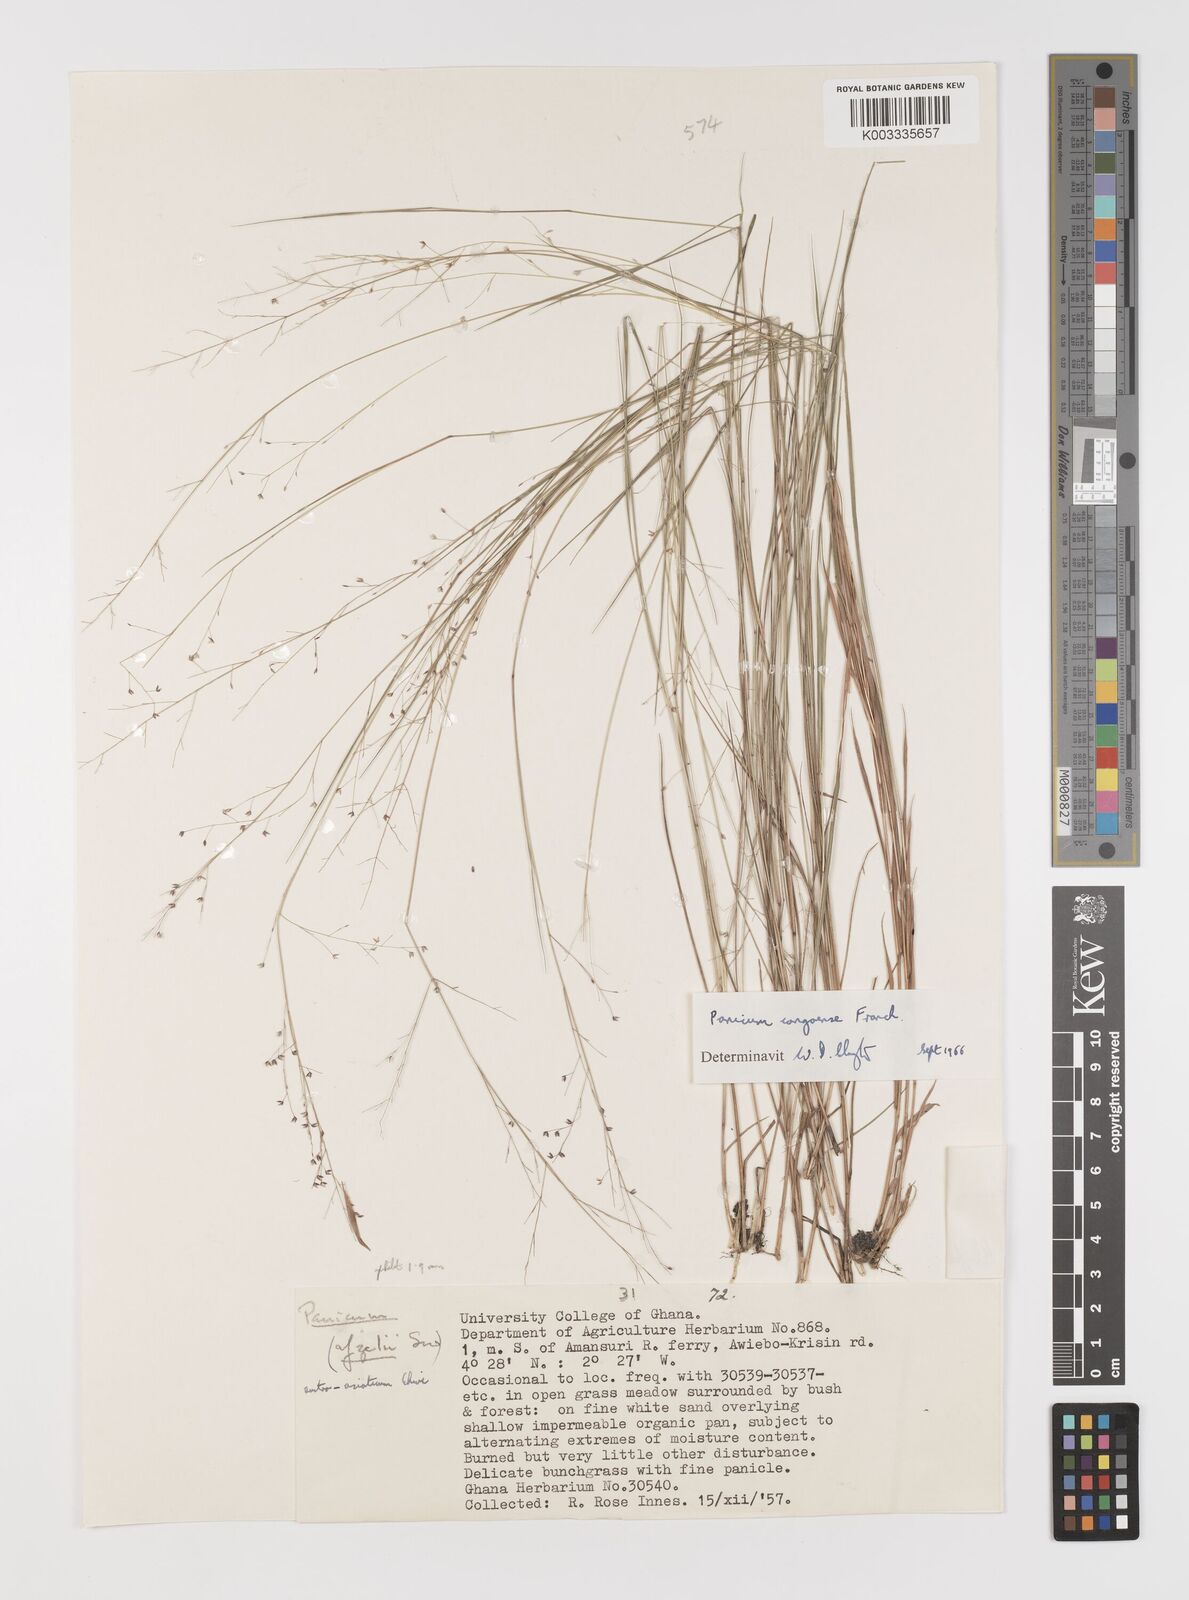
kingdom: Plantae
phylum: Tracheophyta
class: Liliopsida
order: Poales
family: Poaceae
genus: Panicum
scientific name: Panicum congoense
